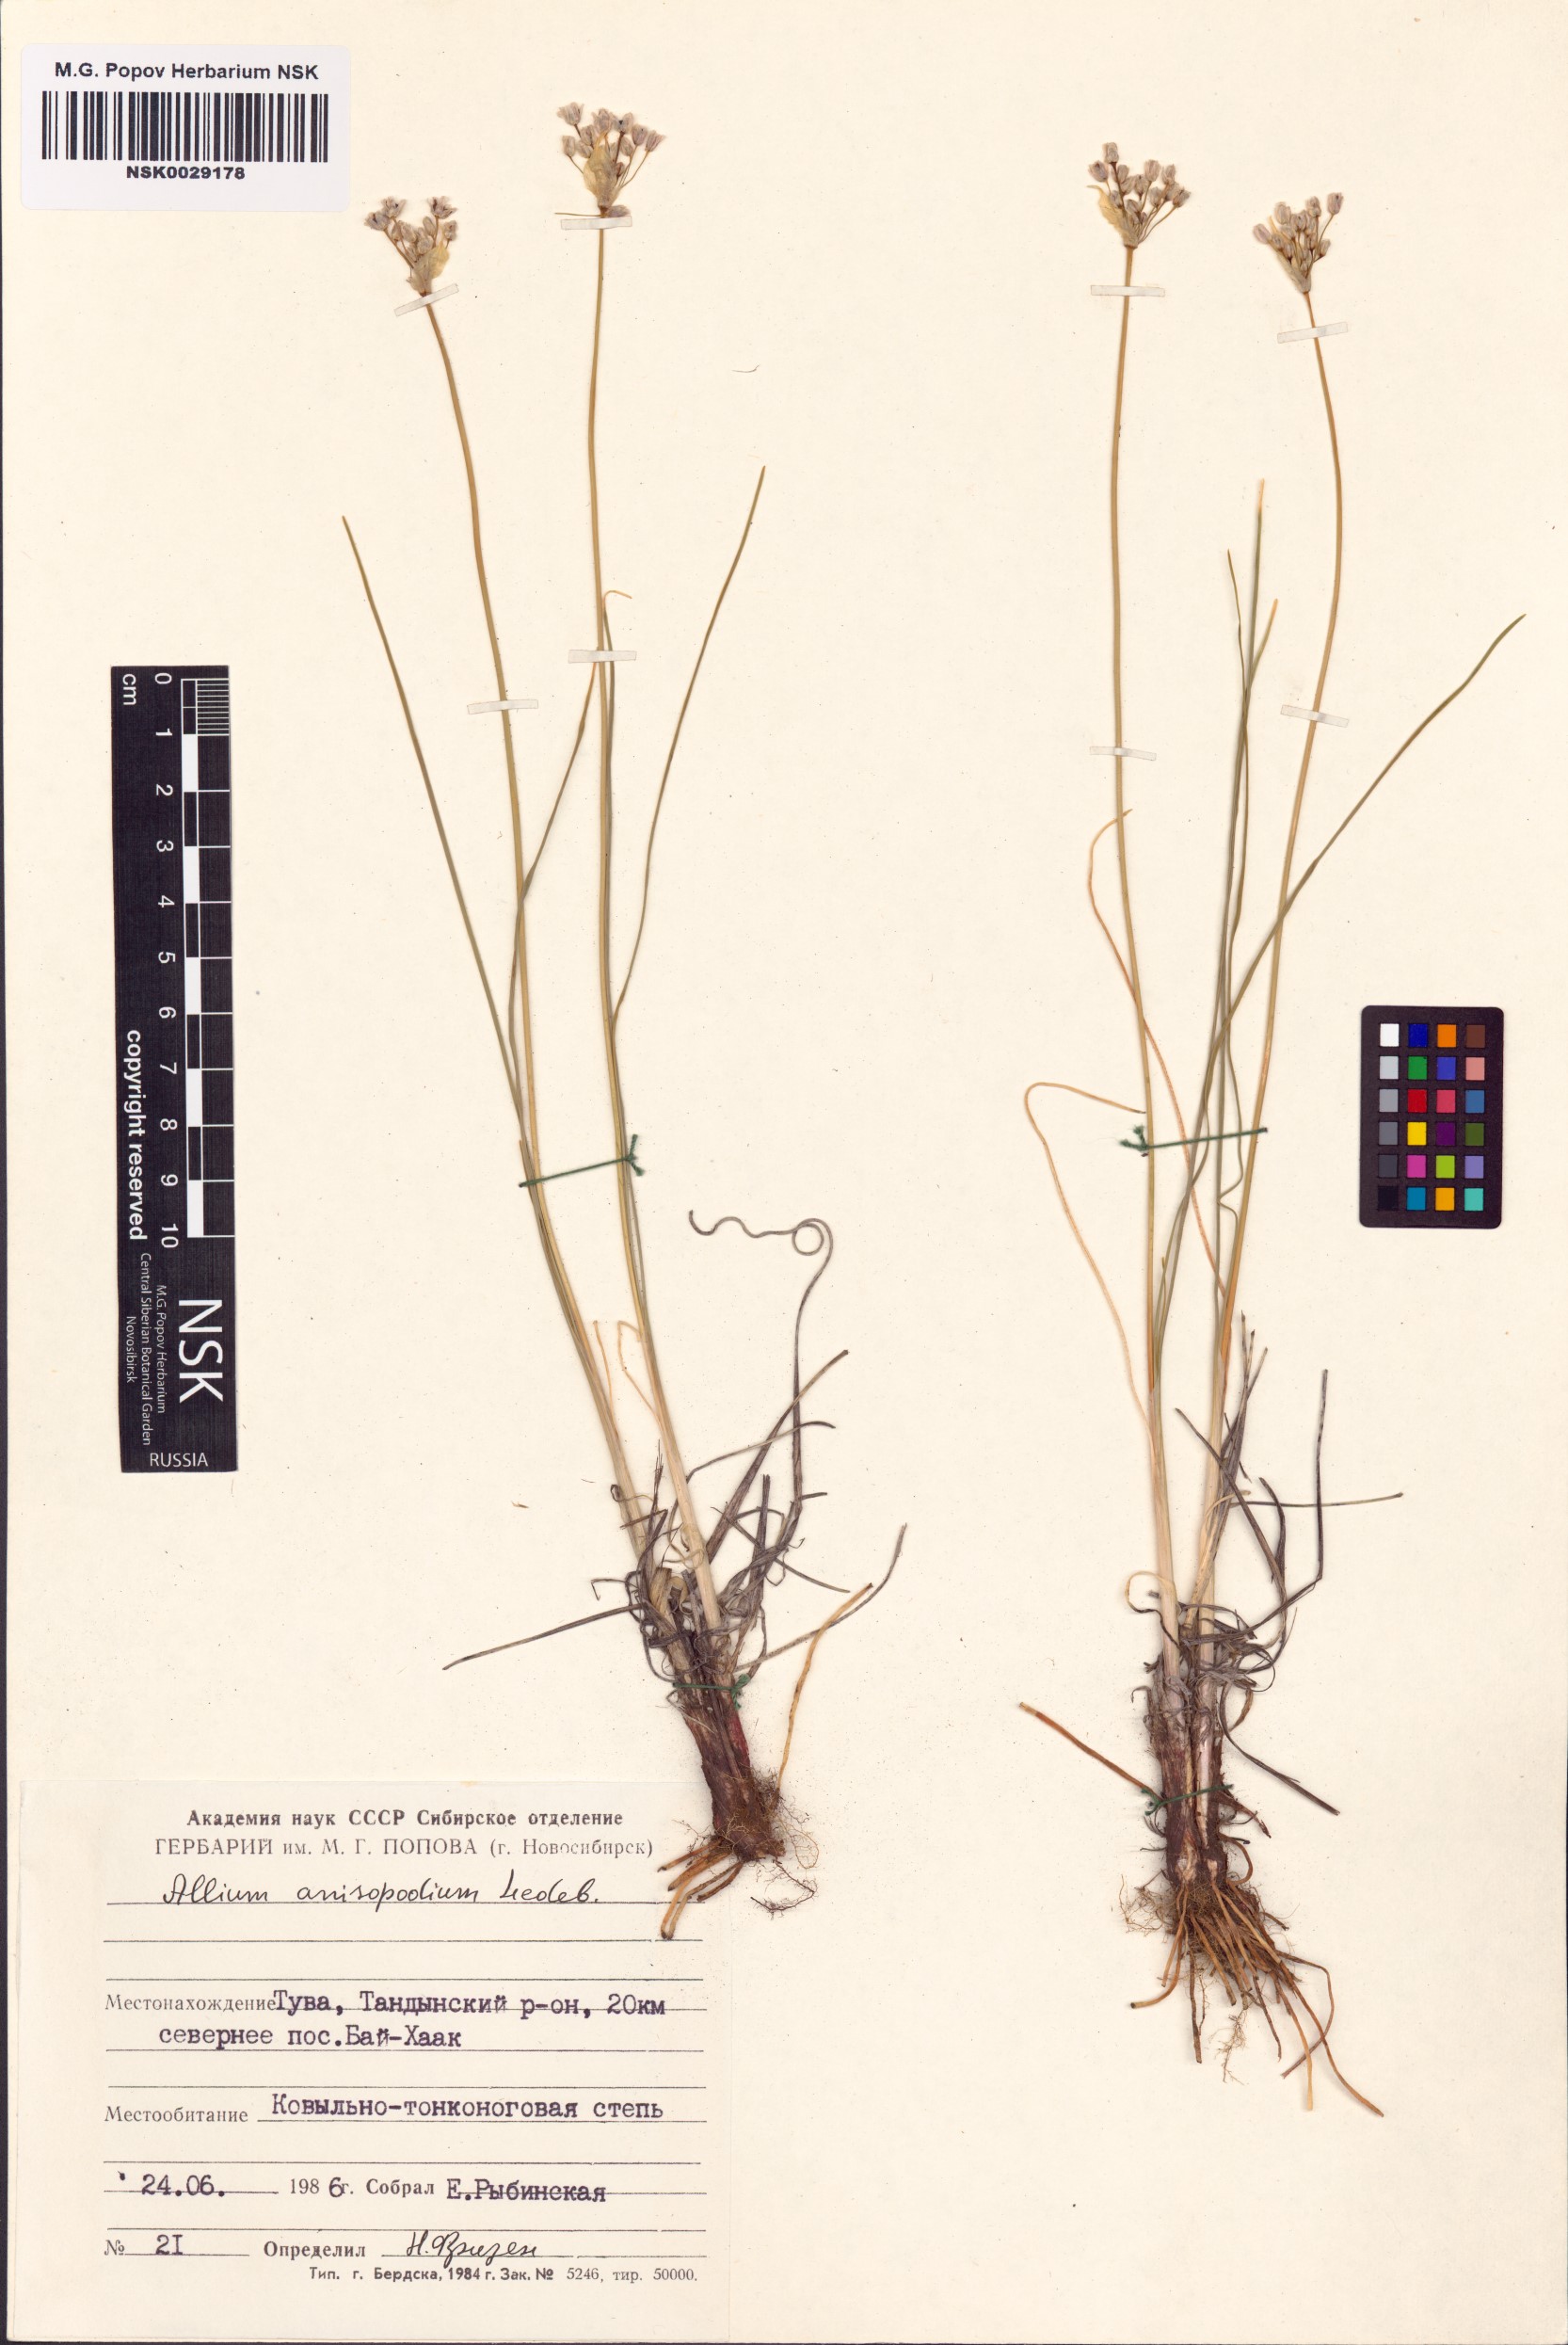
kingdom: Plantae
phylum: Tracheophyta
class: Liliopsida
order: Asparagales
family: Amaryllidaceae
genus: Allium
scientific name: Allium anisopodium
